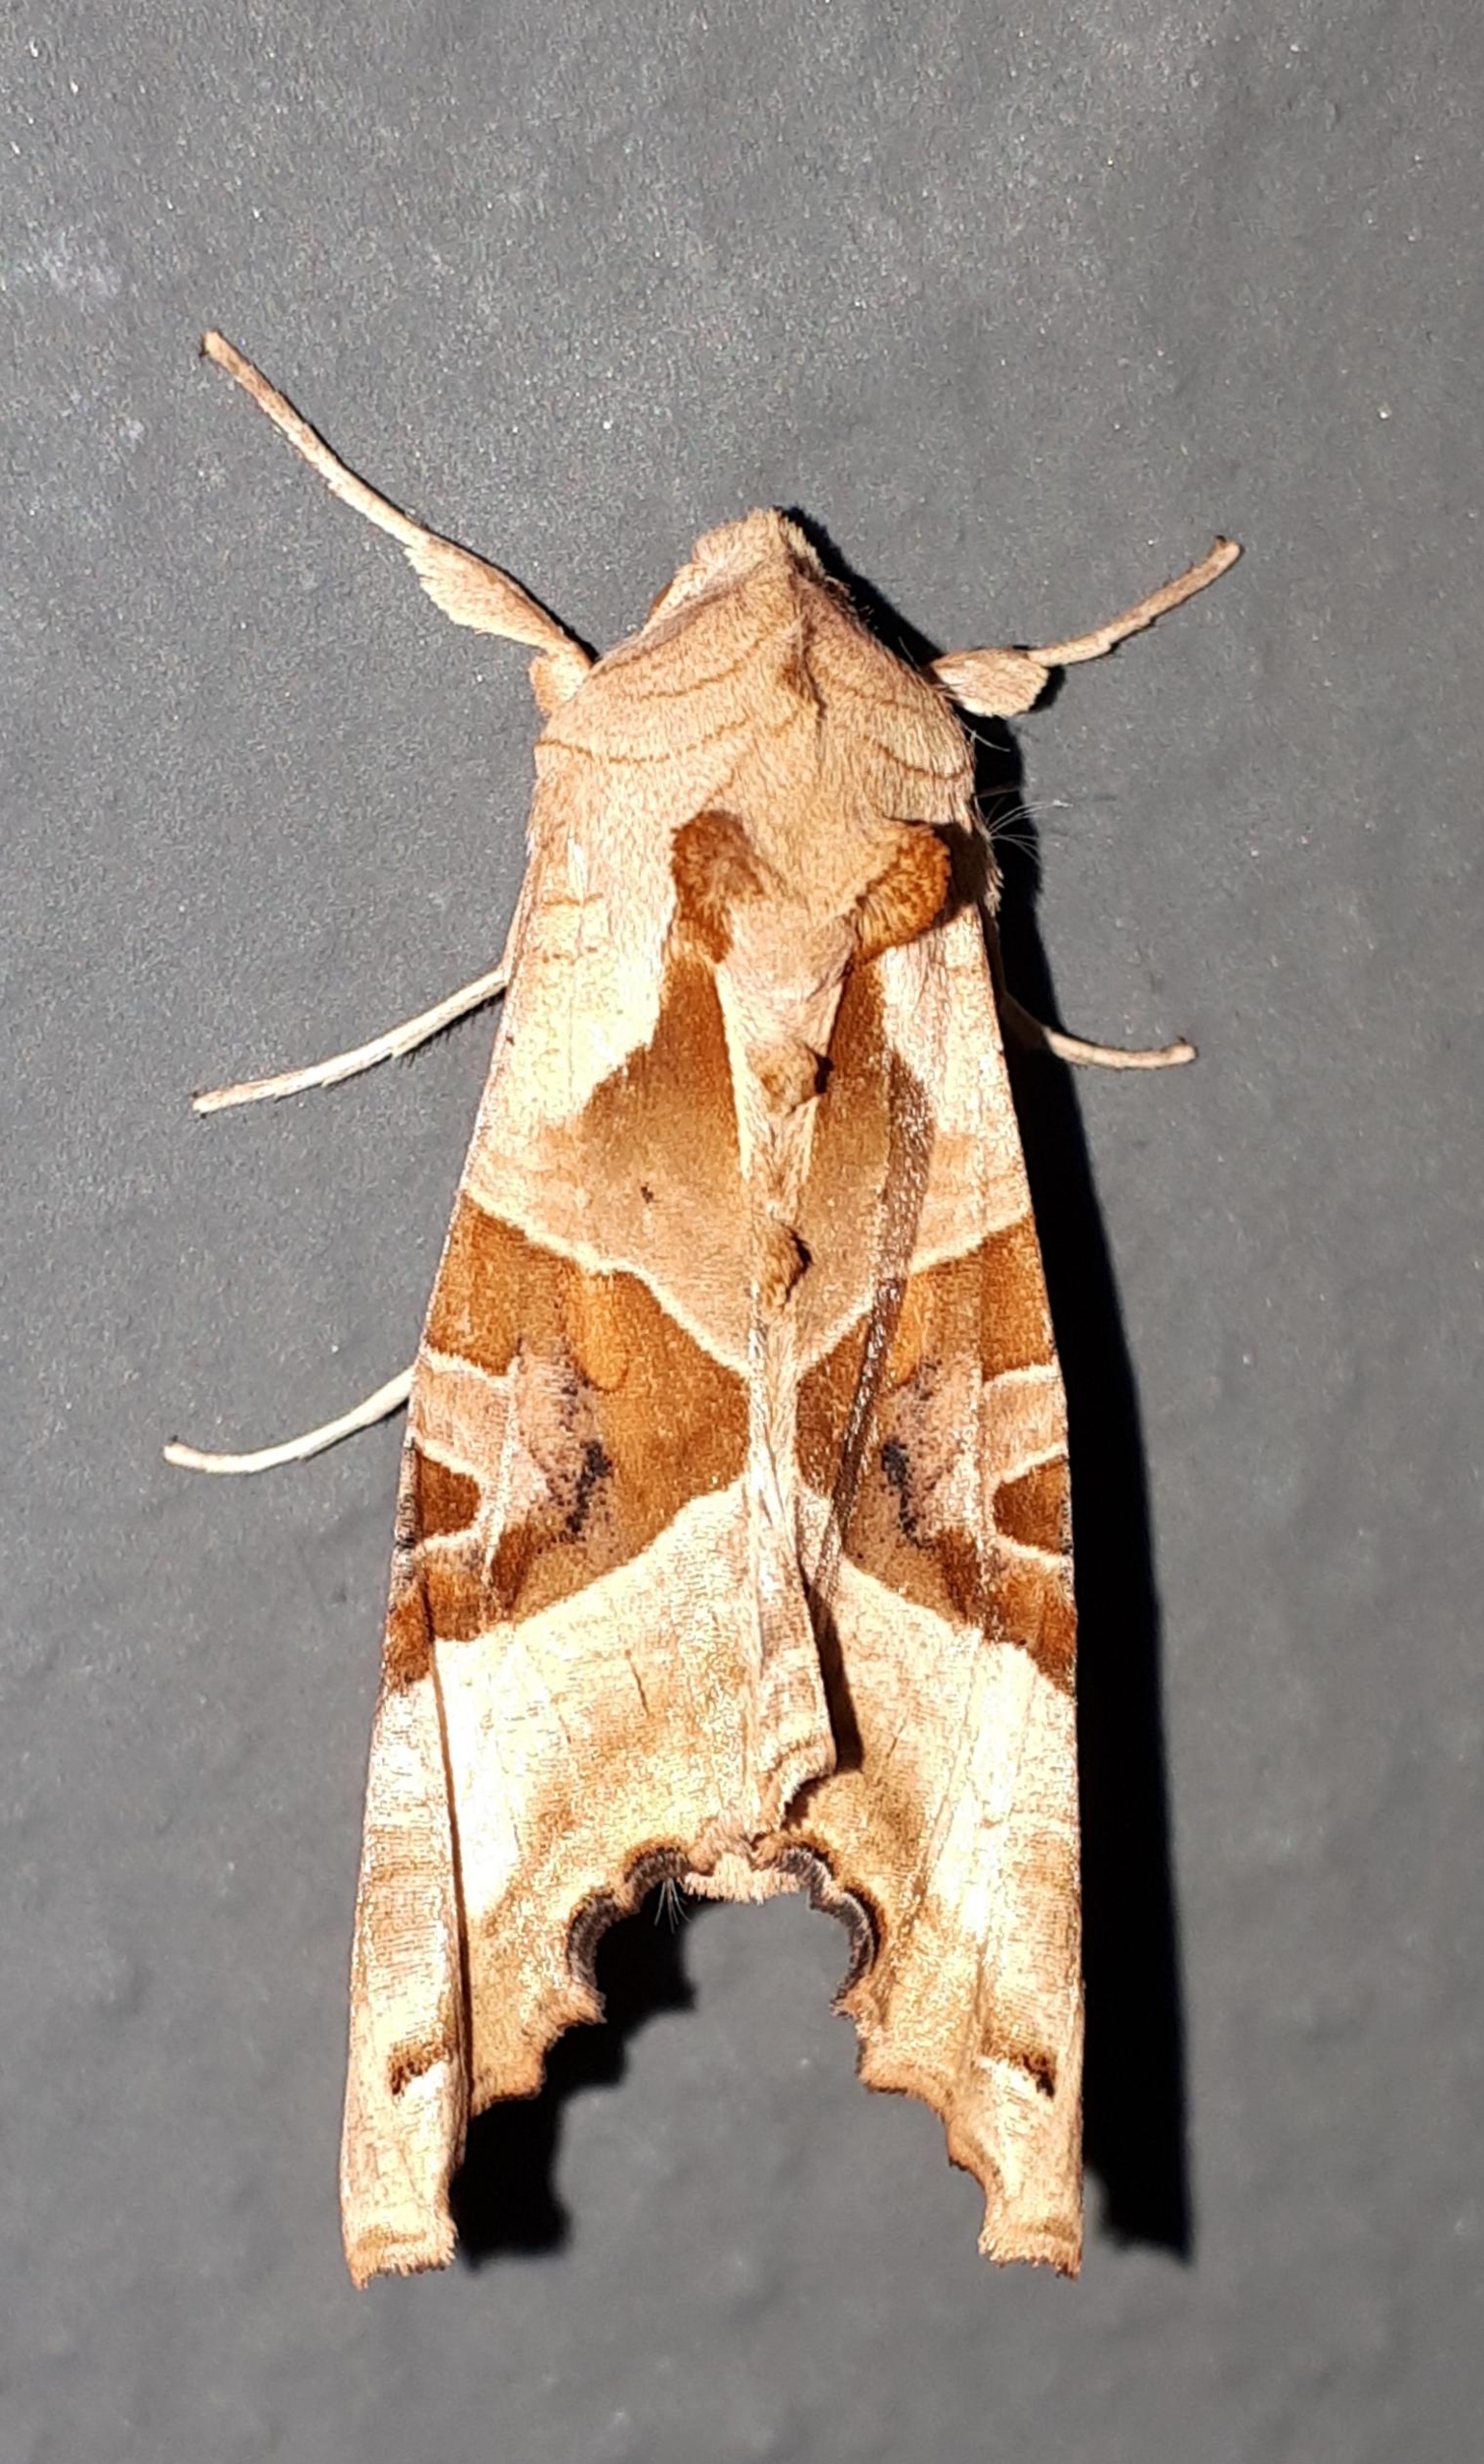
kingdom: Animalia
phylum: Arthropoda
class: Insecta
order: Lepidoptera
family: Noctuidae
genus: Phlogophora
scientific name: Phlogophora meticulosa
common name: Agatugle
